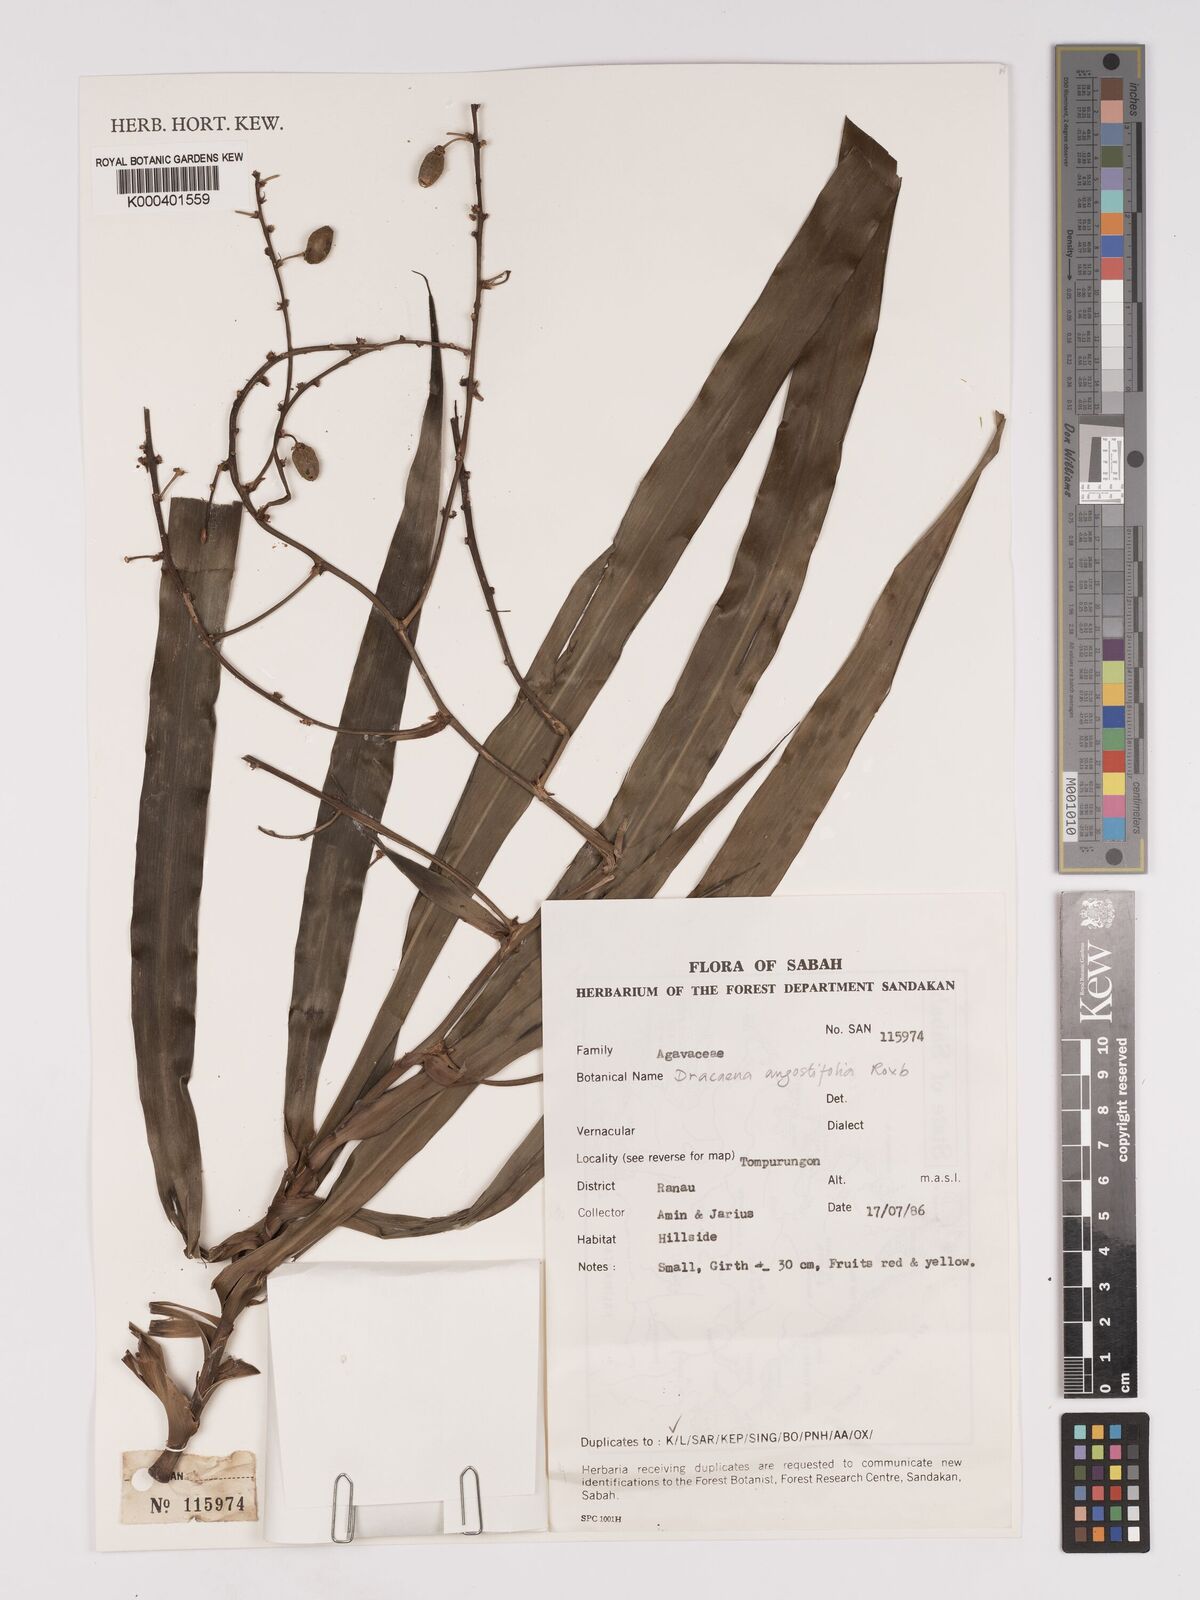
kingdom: Plantae
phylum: Tracheophyta
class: Liliopsida
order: Asparagales
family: Asparagaceae
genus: Dracaena
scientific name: Dracaena angustifolia
